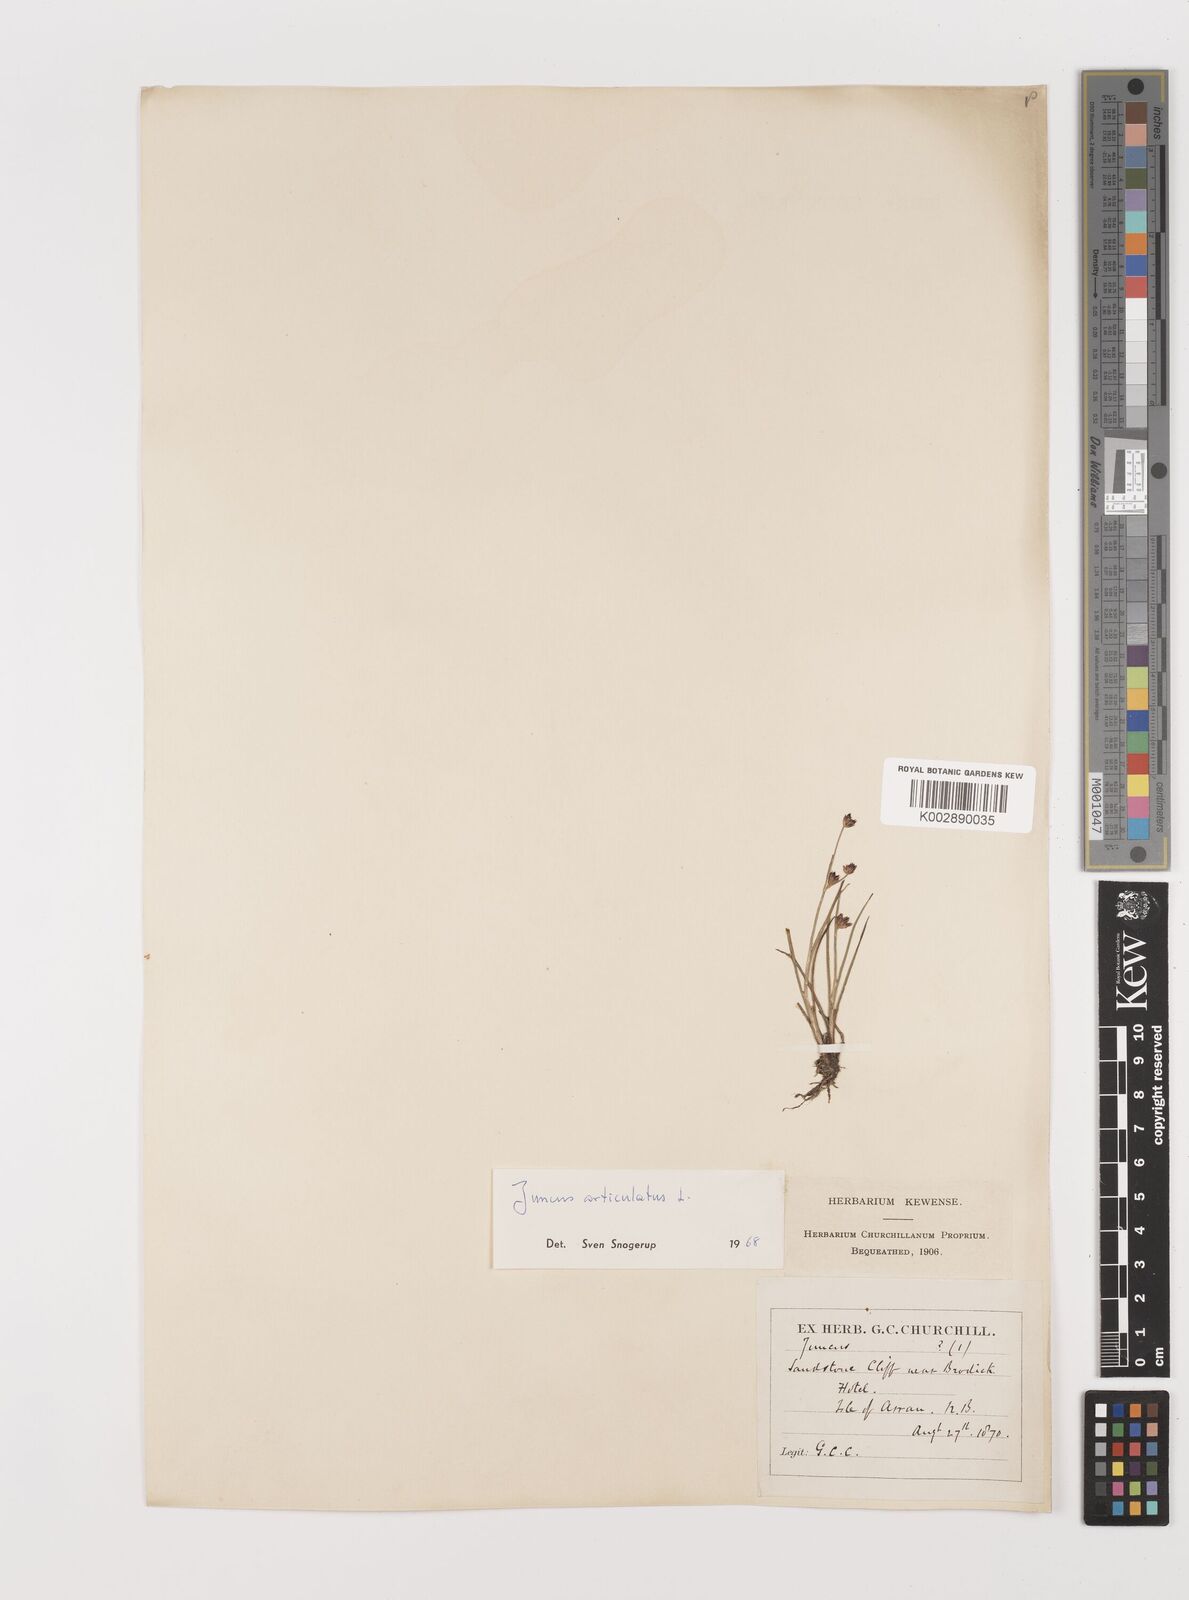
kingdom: Plantae
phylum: Tracheophyta
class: Liliopsida
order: Poales
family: Juncaceae
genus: Juncus
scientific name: Juncus articulatus
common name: Jointed rush
